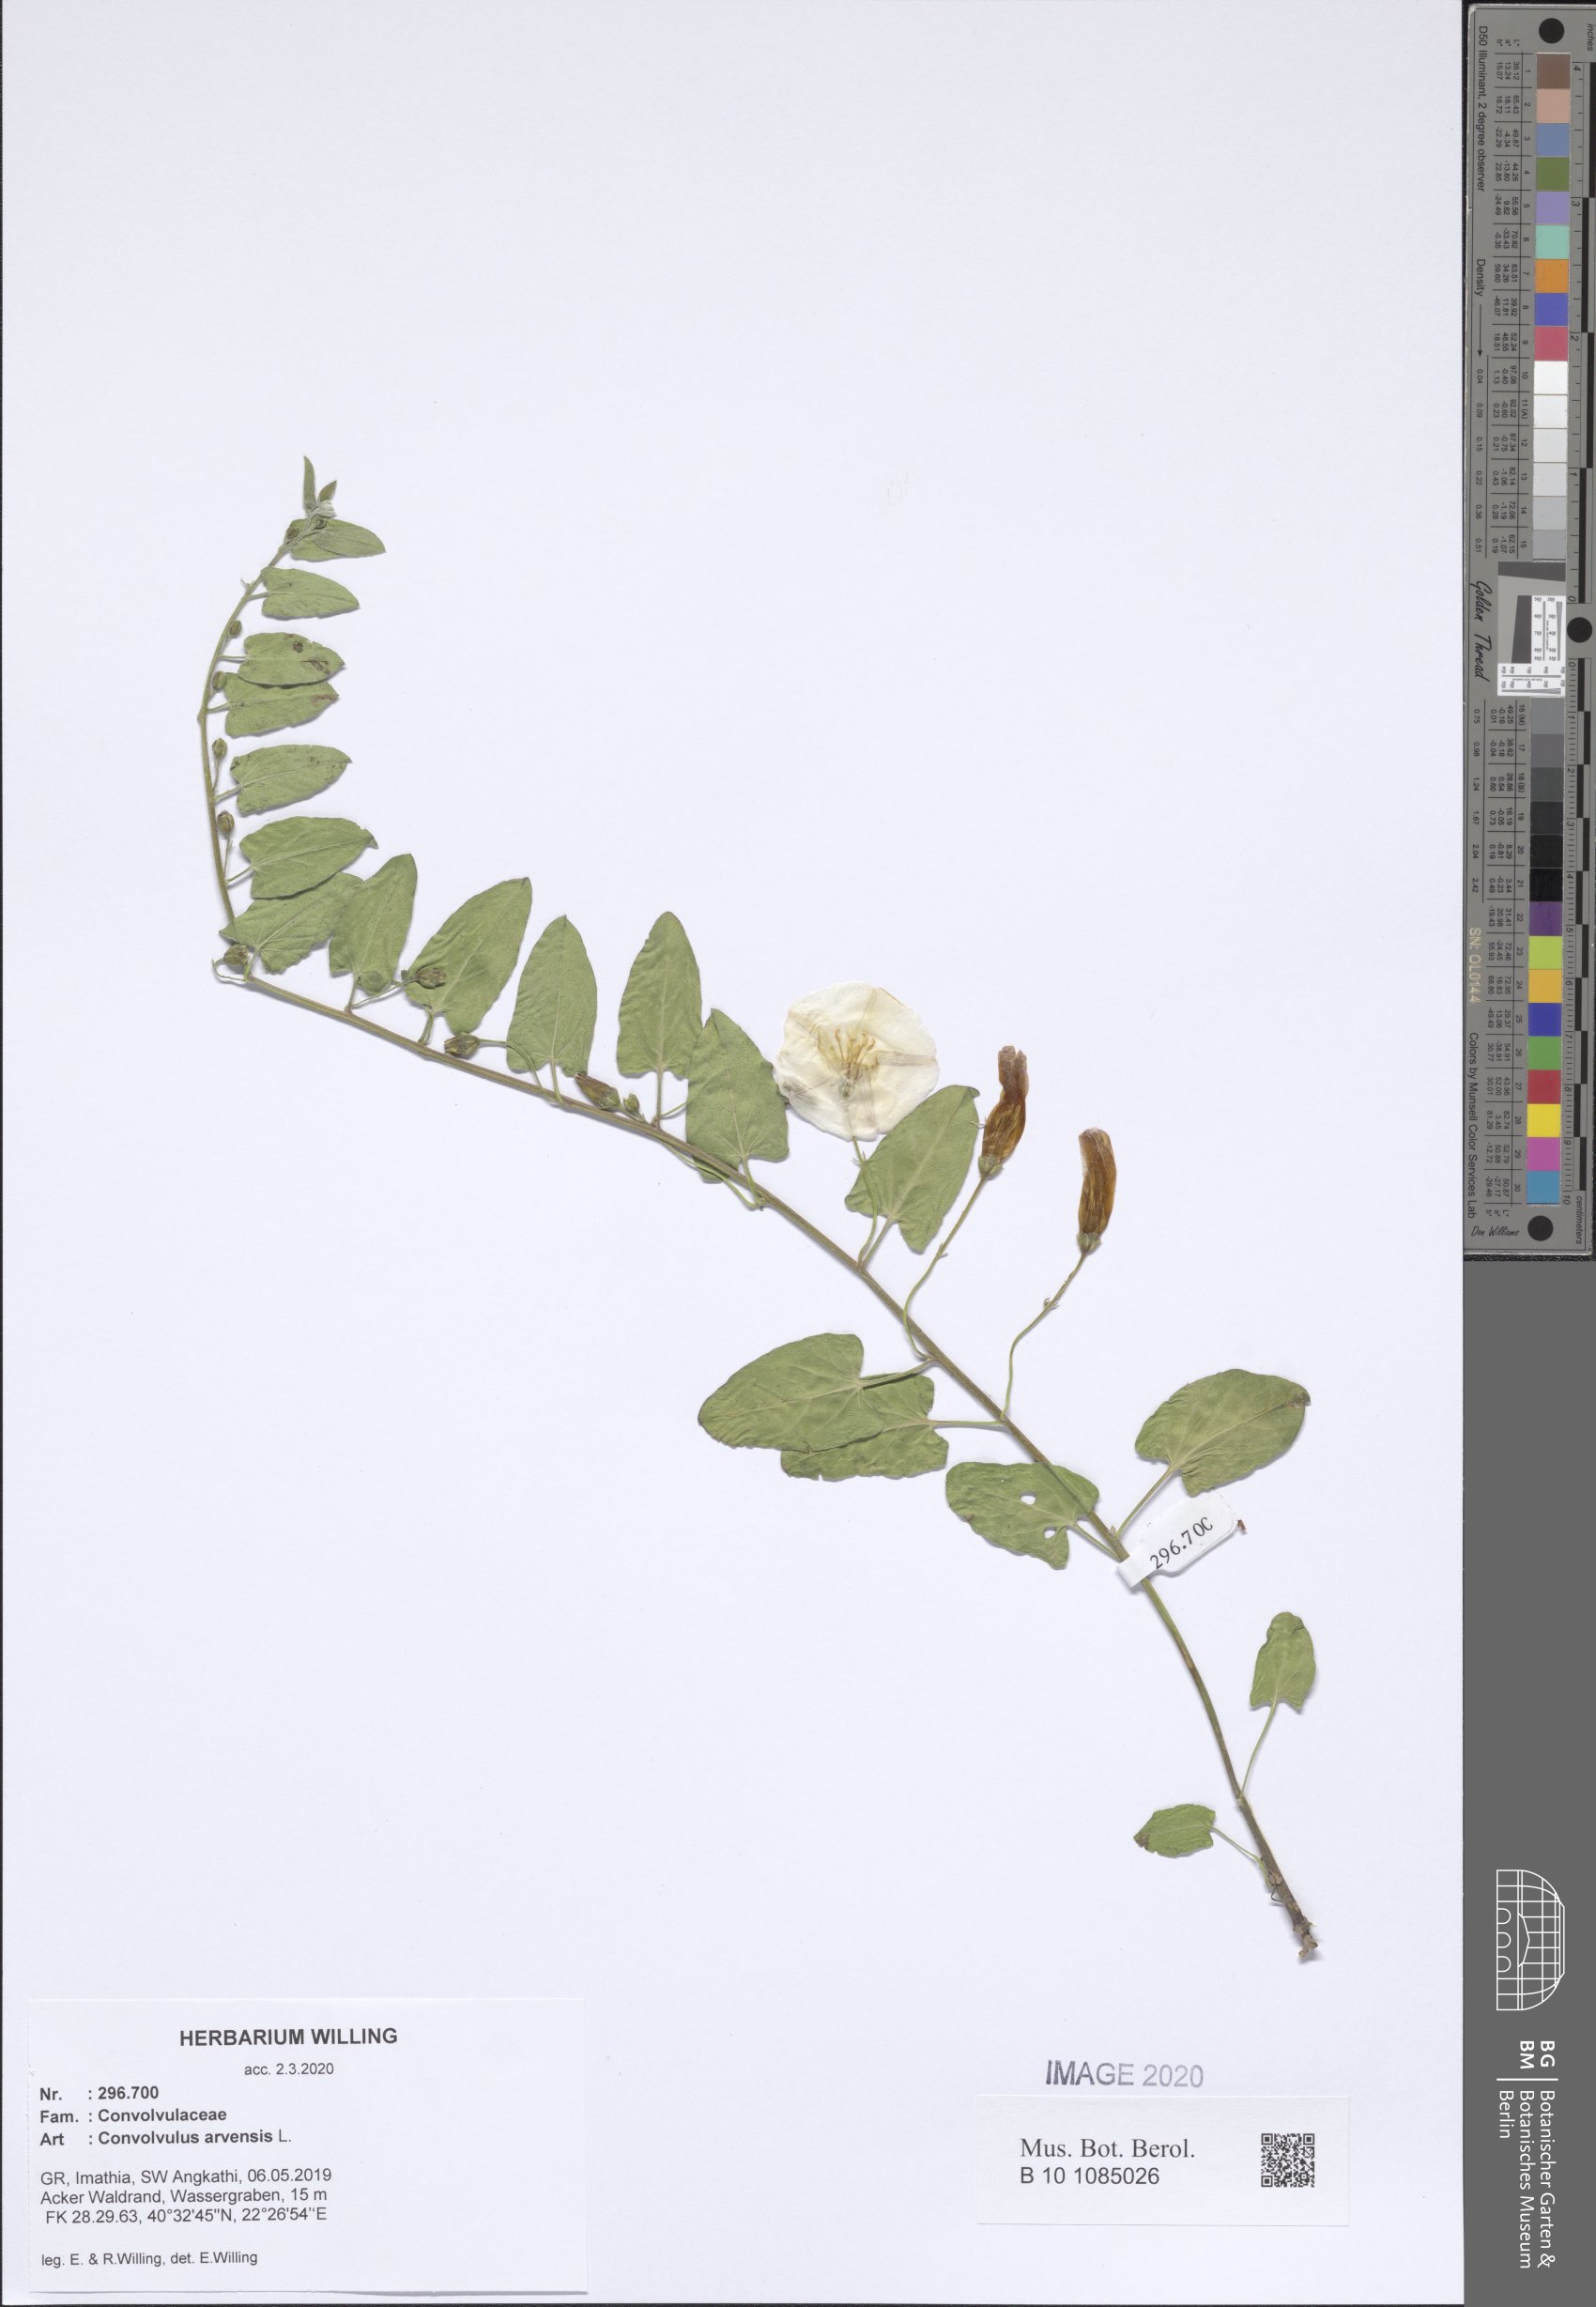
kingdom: Plantae
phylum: Tracheophyta
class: Magnoliopsida
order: Solanales
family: Convolvulaceae
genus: Convolvulus
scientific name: Convolvulus arvensis
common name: Field bindweed
